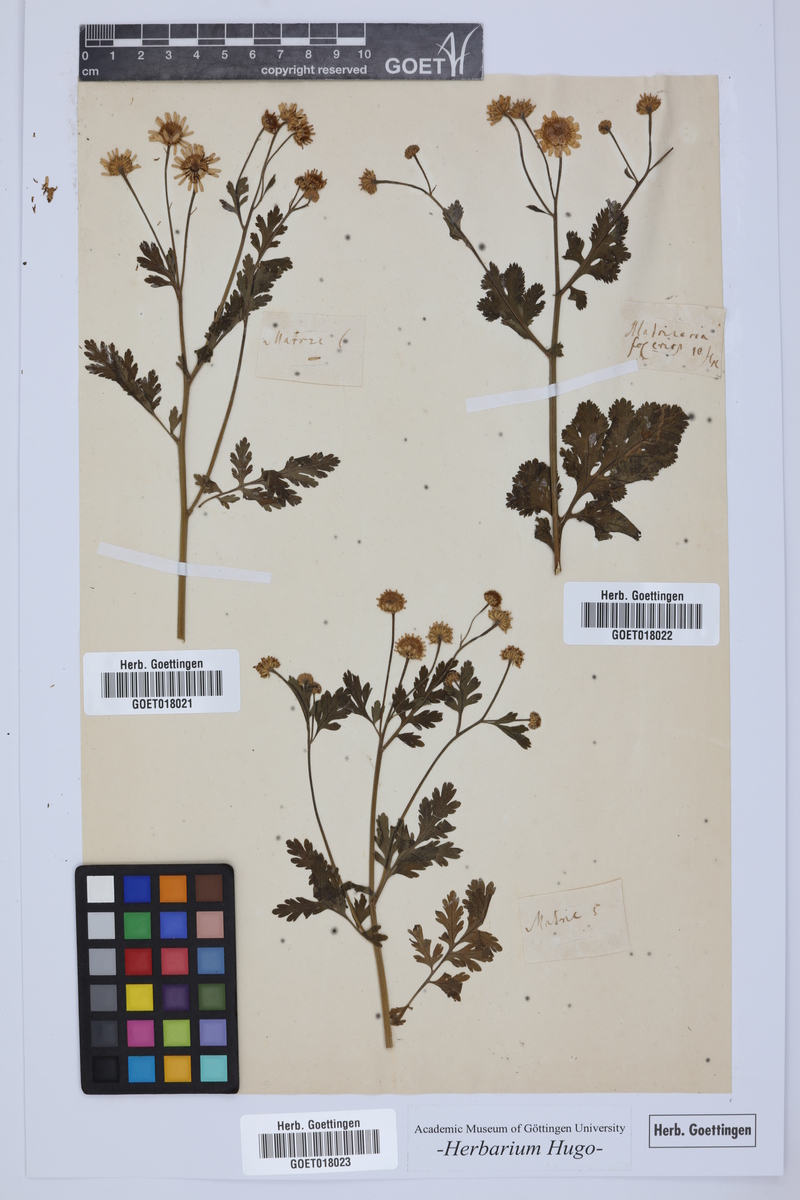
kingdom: Plantae
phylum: Tracheophyta
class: Magnoliopsida
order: Asterales
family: Asteraceae
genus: Matricaria
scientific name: Matricaria
